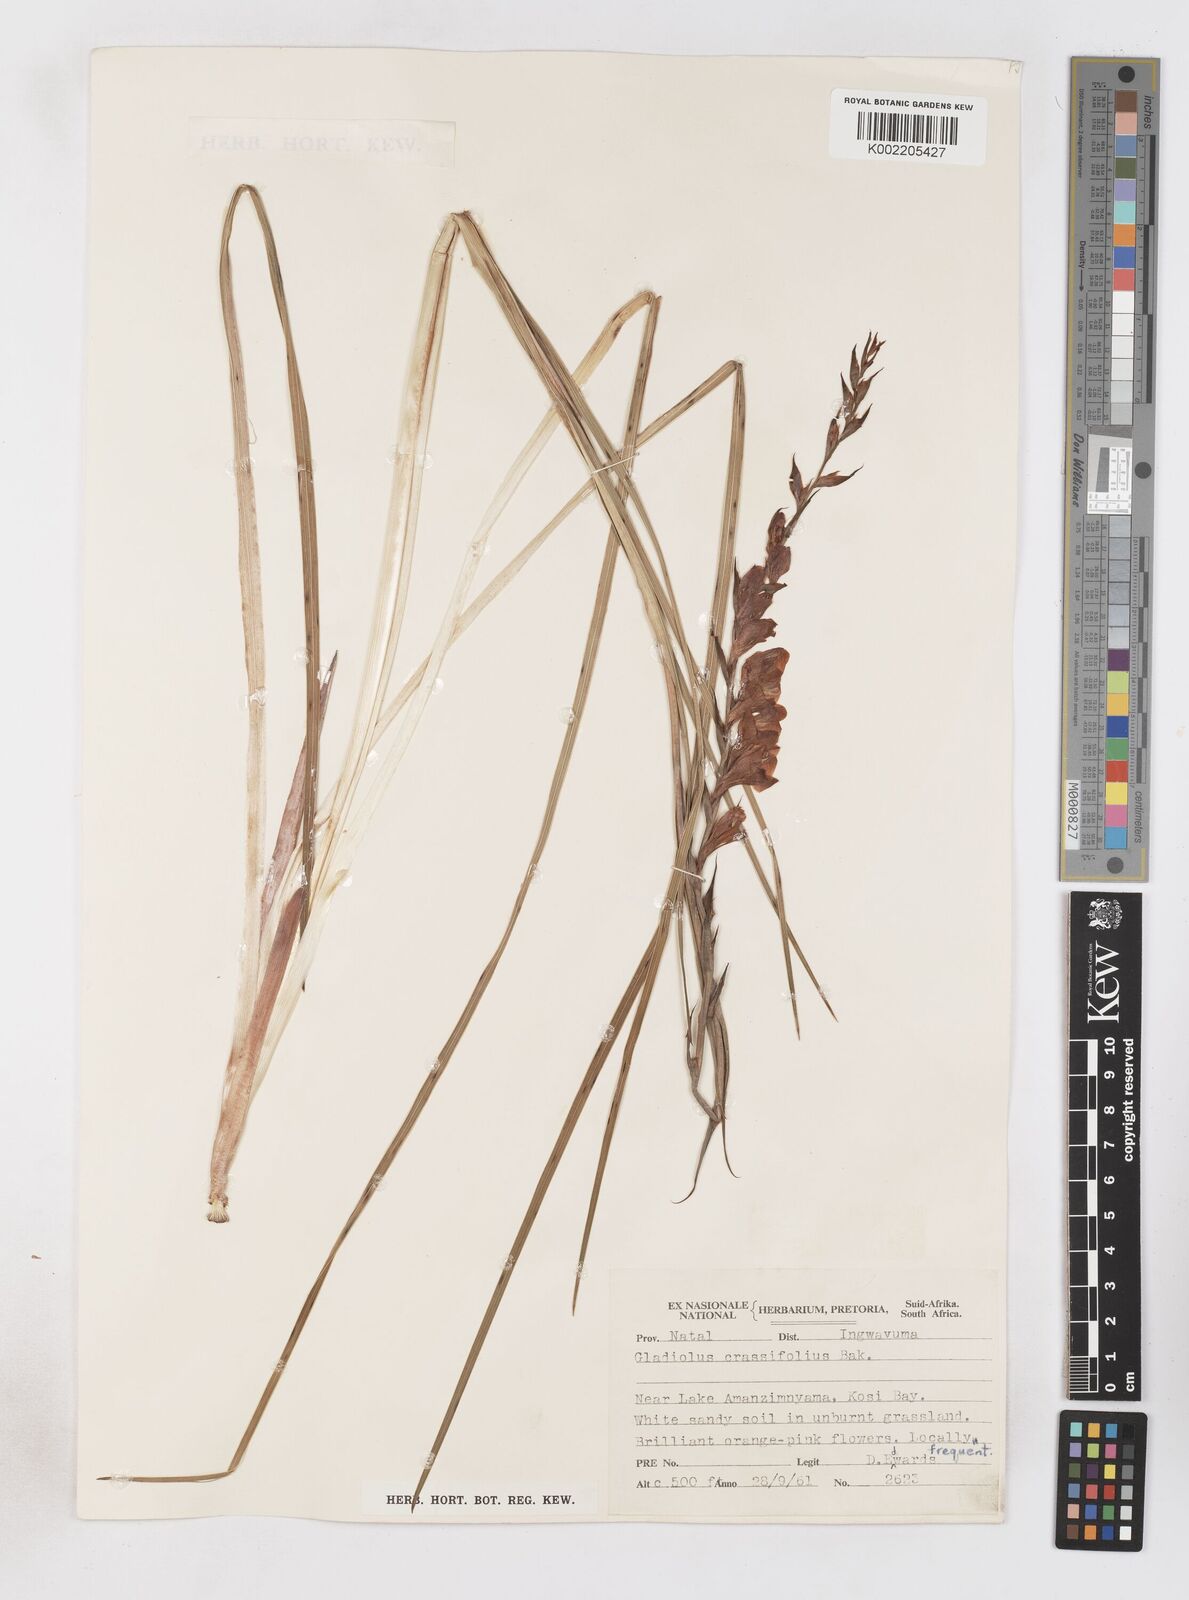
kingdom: Plantae
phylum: Tracheophyta
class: Liliopsida
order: Asparagales
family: Iridaceae
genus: Gladiolus
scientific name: Gladiolus densiflorus
